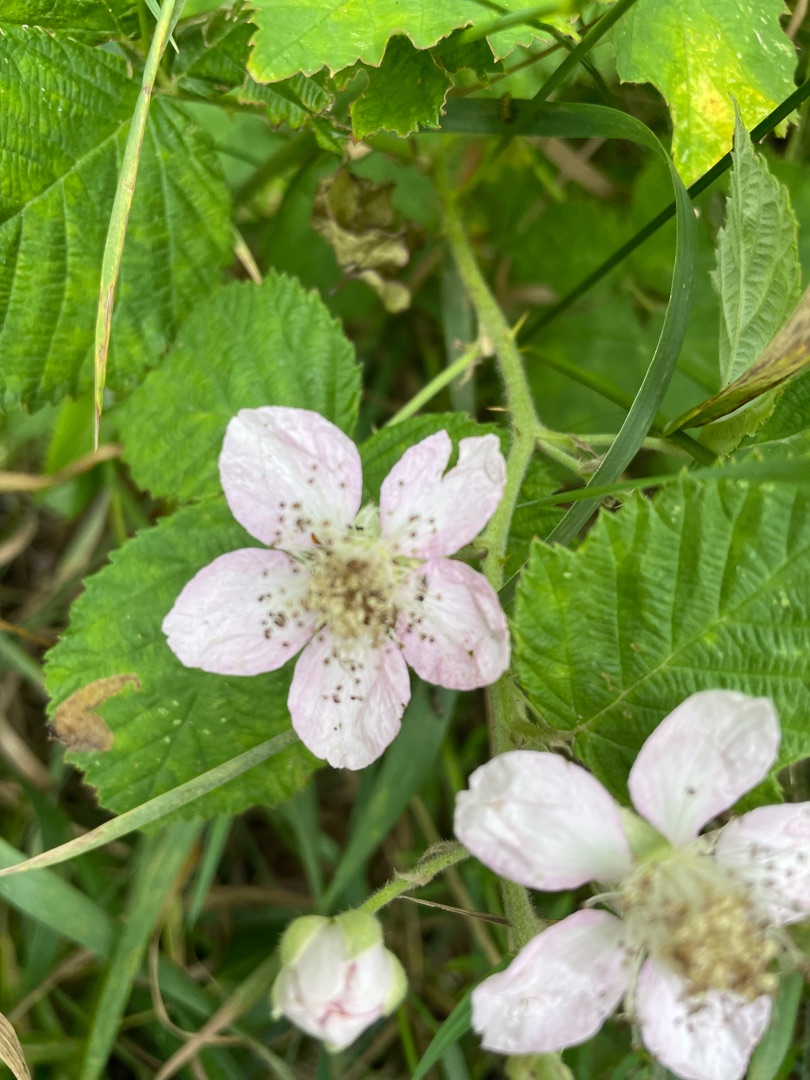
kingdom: Plantae
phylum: Tracheophyta
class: Magnoliopsida
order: Rosales
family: Rosaceae
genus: Rubus
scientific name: Rubus
